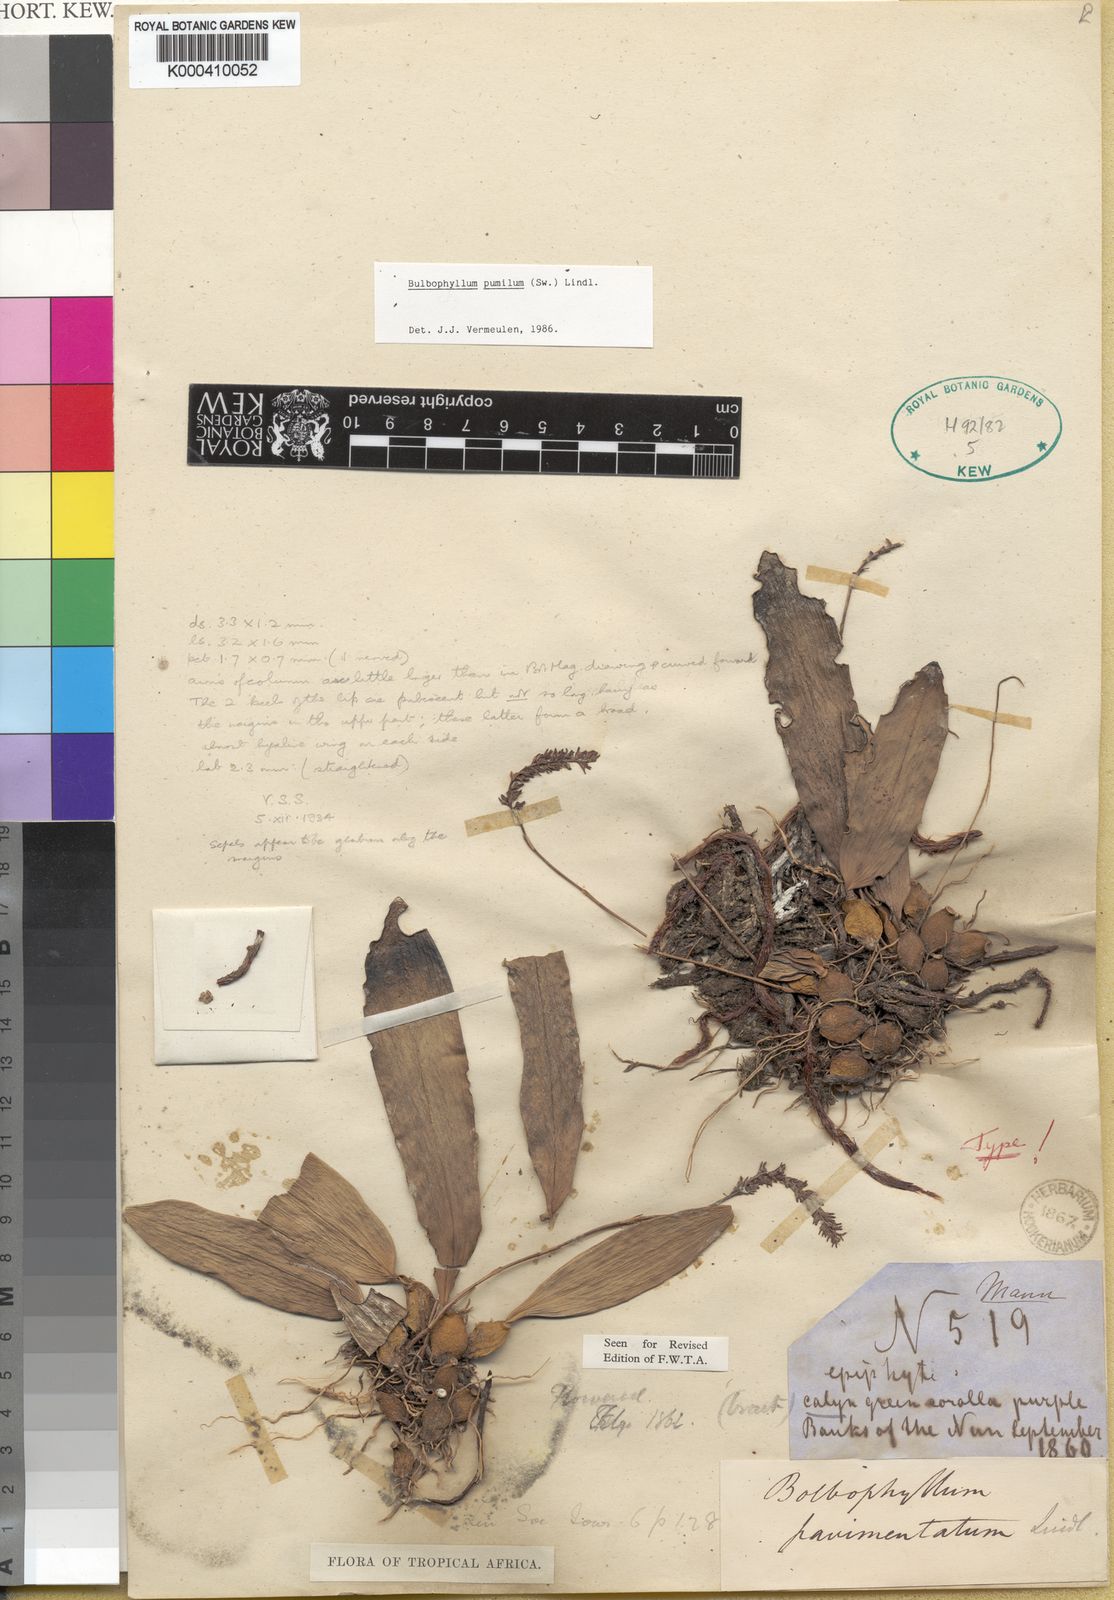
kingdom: Plantae
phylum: Tracheophyta
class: Liliopsida
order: Asparagales
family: Orchidaceae
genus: Bulbophyllum
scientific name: Bulbophyllum pumilum
